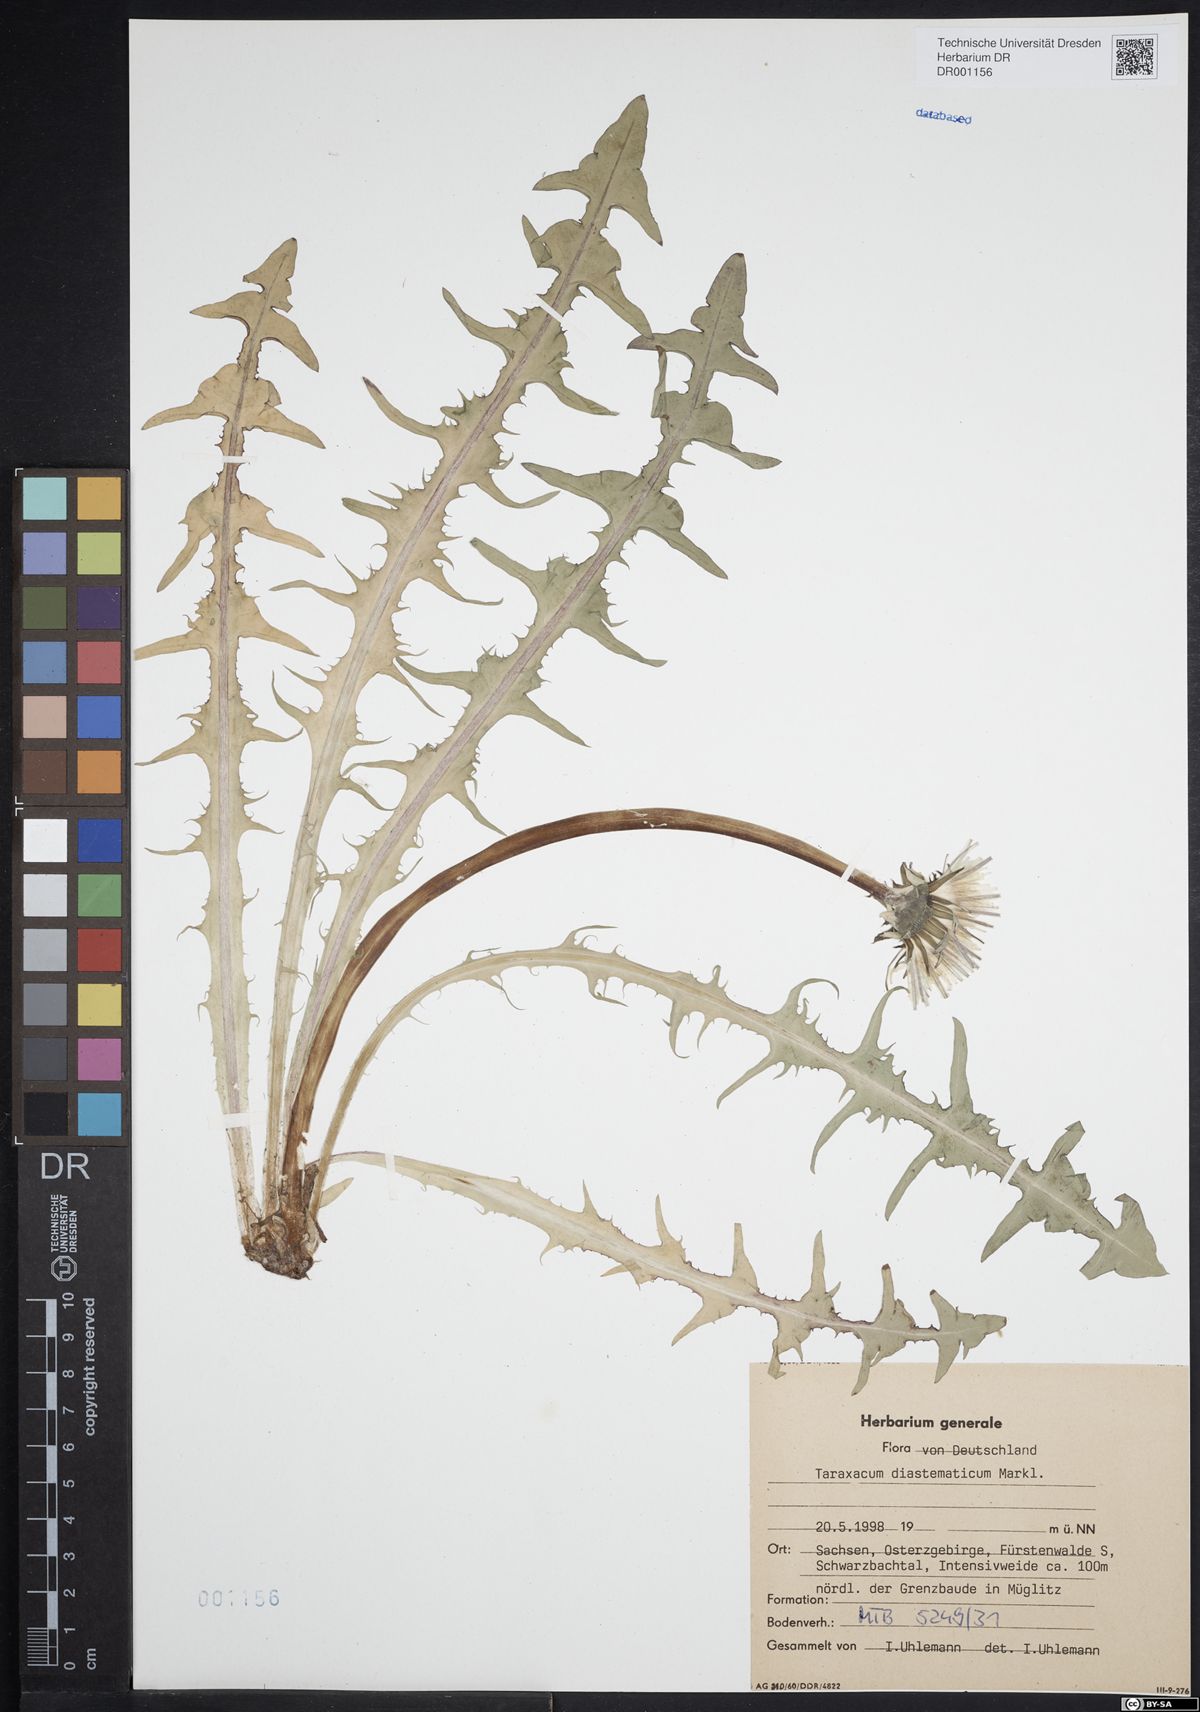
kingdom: Plantae
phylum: Tracheophyta
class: Magnoliopsida
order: Asterales
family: Asteraceae
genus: Taraxacum
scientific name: Taraxacum diastematicum
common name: Bulbous-lobed dandelion
